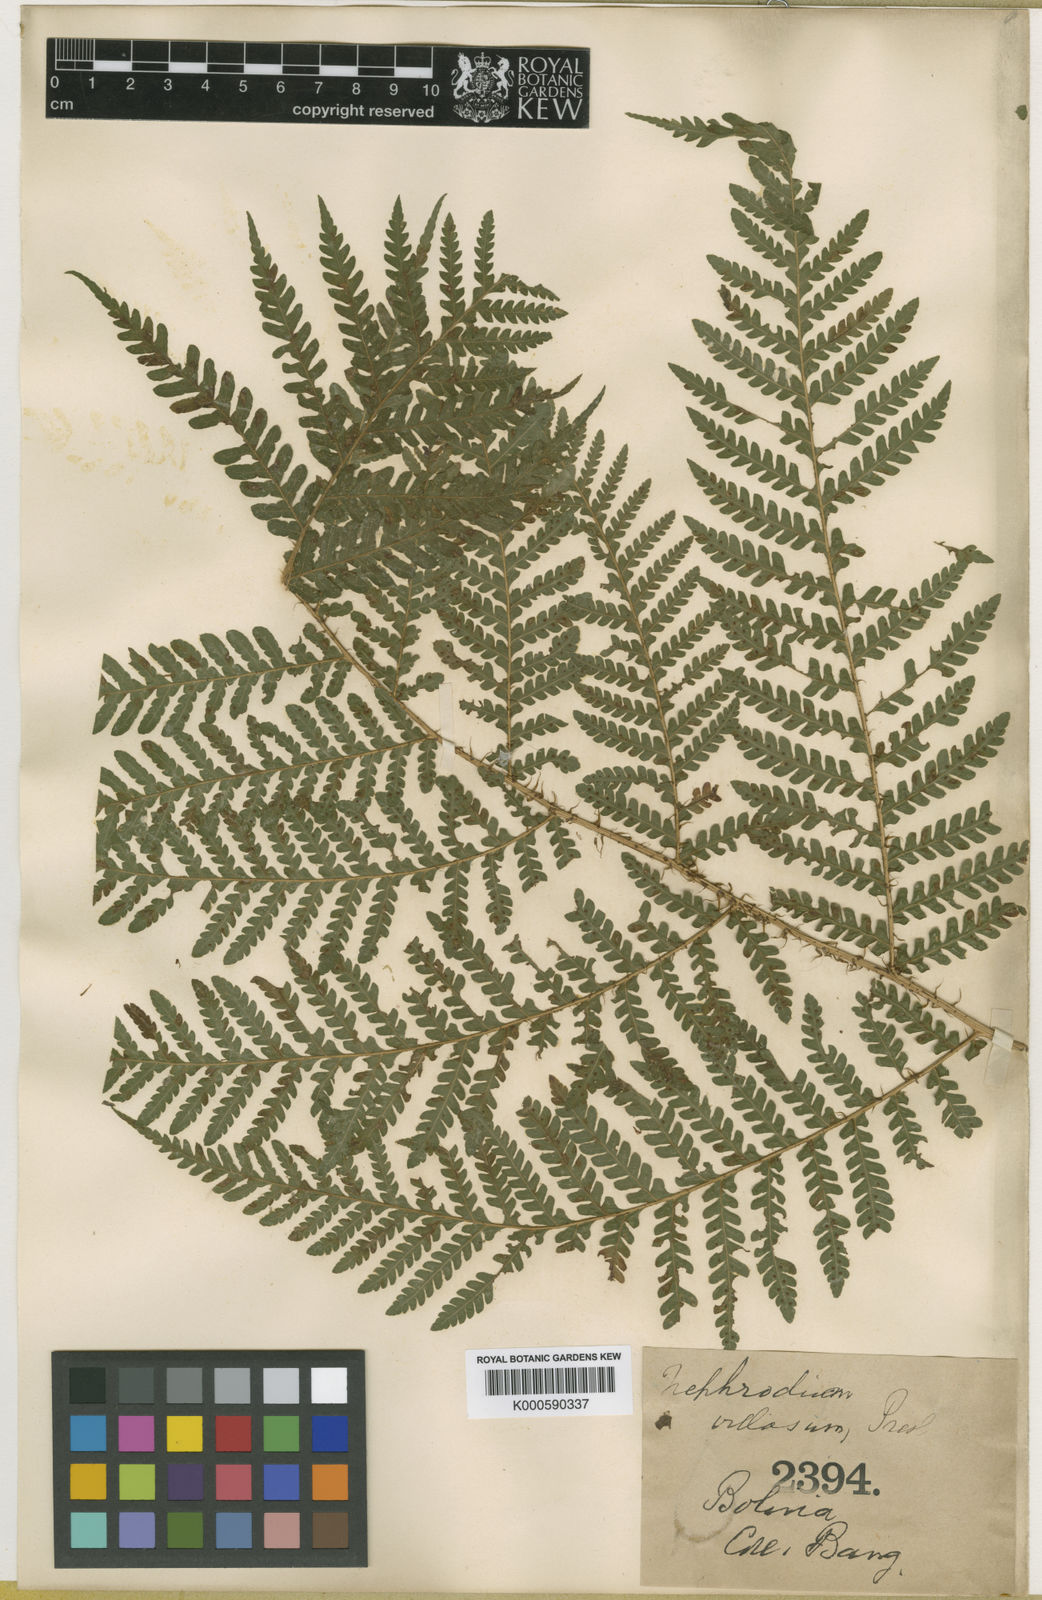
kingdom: Plantae
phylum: Tracheophyta
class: Polypodiopsida
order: Polypodiales
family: Dryopteridaceae
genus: Megalastrum
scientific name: Megalastrum andicola
